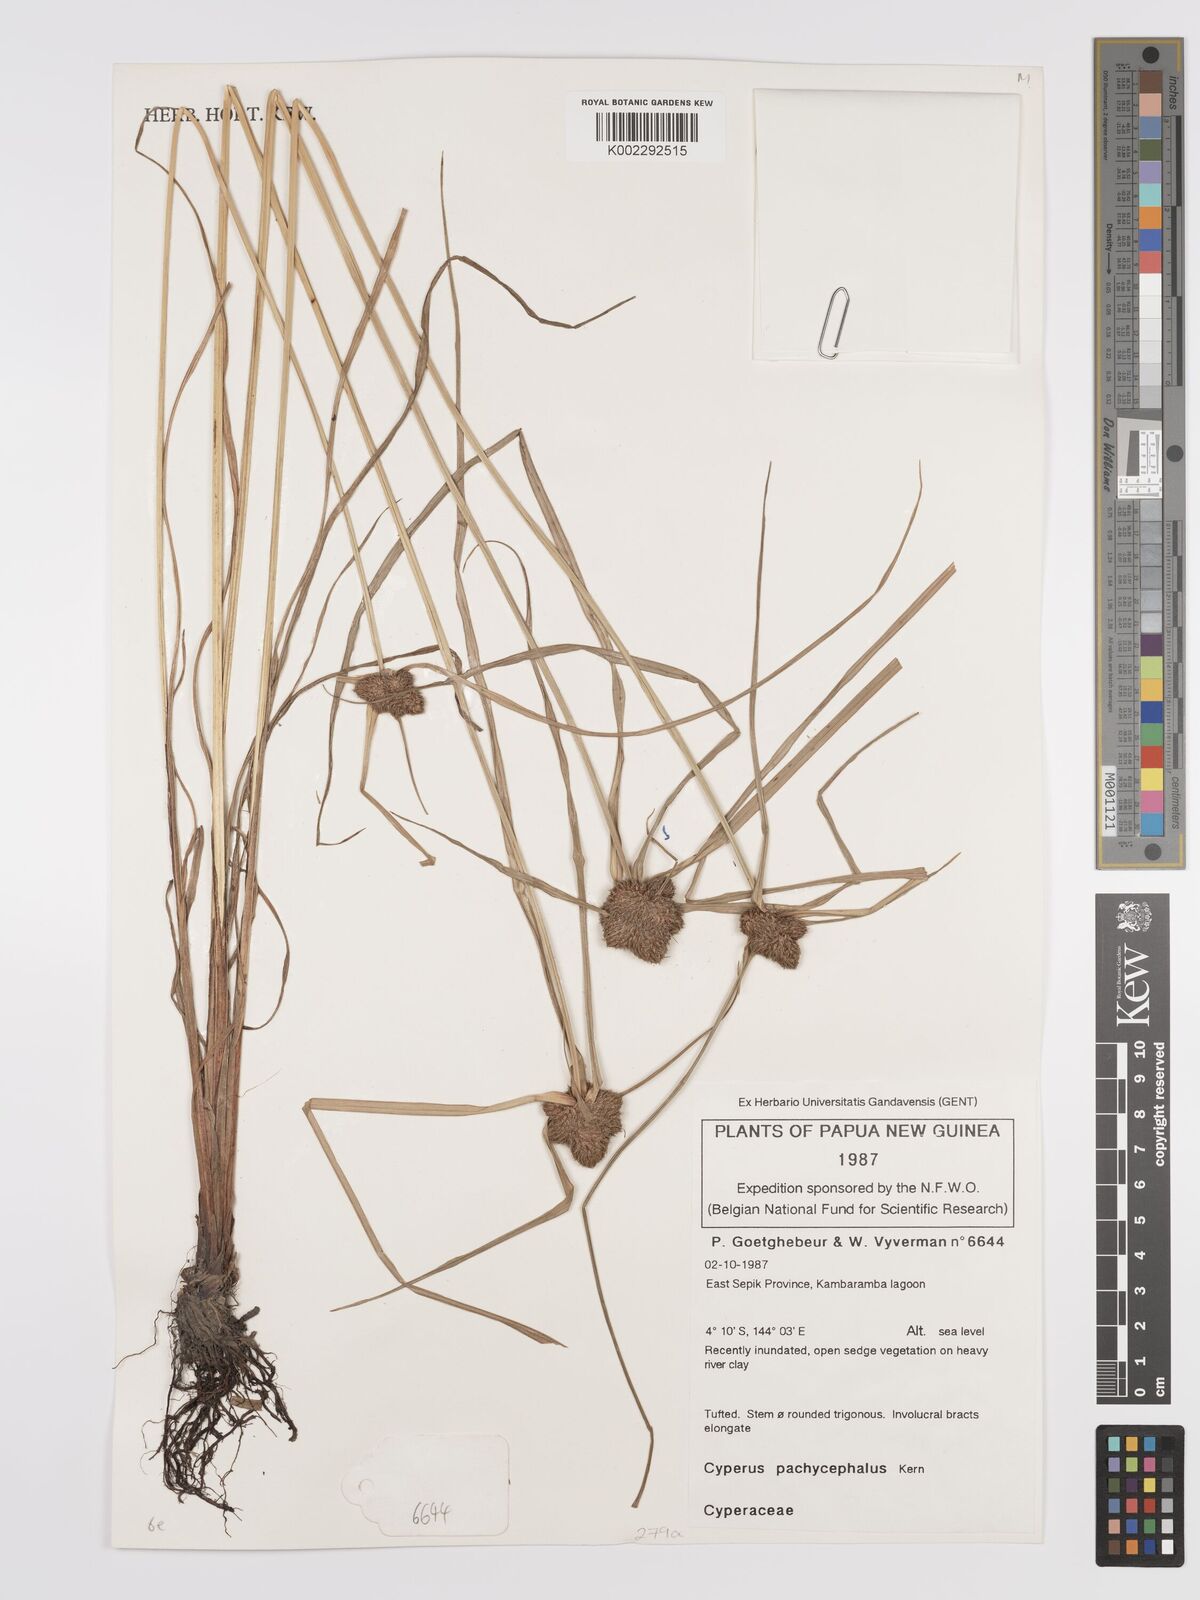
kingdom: Plantae
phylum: Tracheophyta
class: Liliopsida
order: Poales
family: Cyperaceae
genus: Cyperus
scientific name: Cyperus pachycephalus
